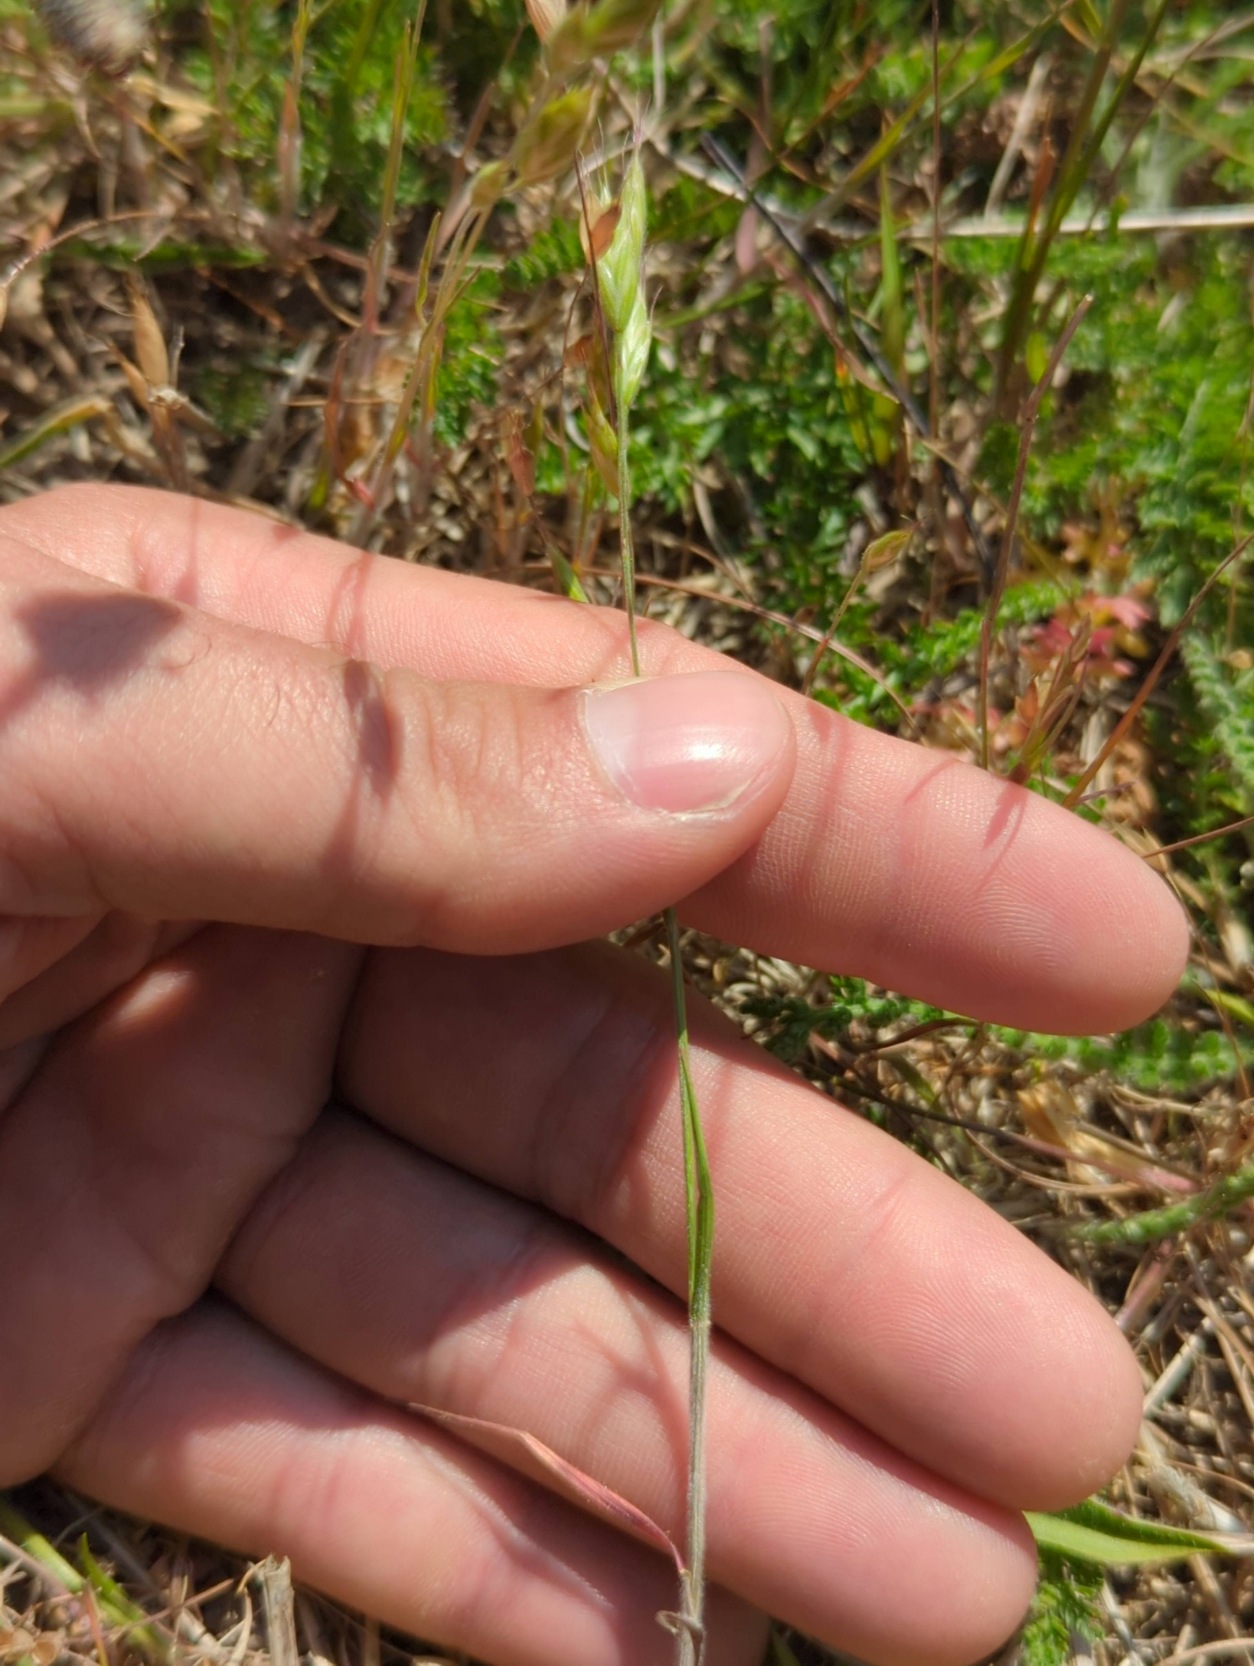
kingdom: Plantae
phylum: Tracheophyta
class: Liliopsida
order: Poales
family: Poaceae
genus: Bromus
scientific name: Bromus hordeaceus
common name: Blød hejre
